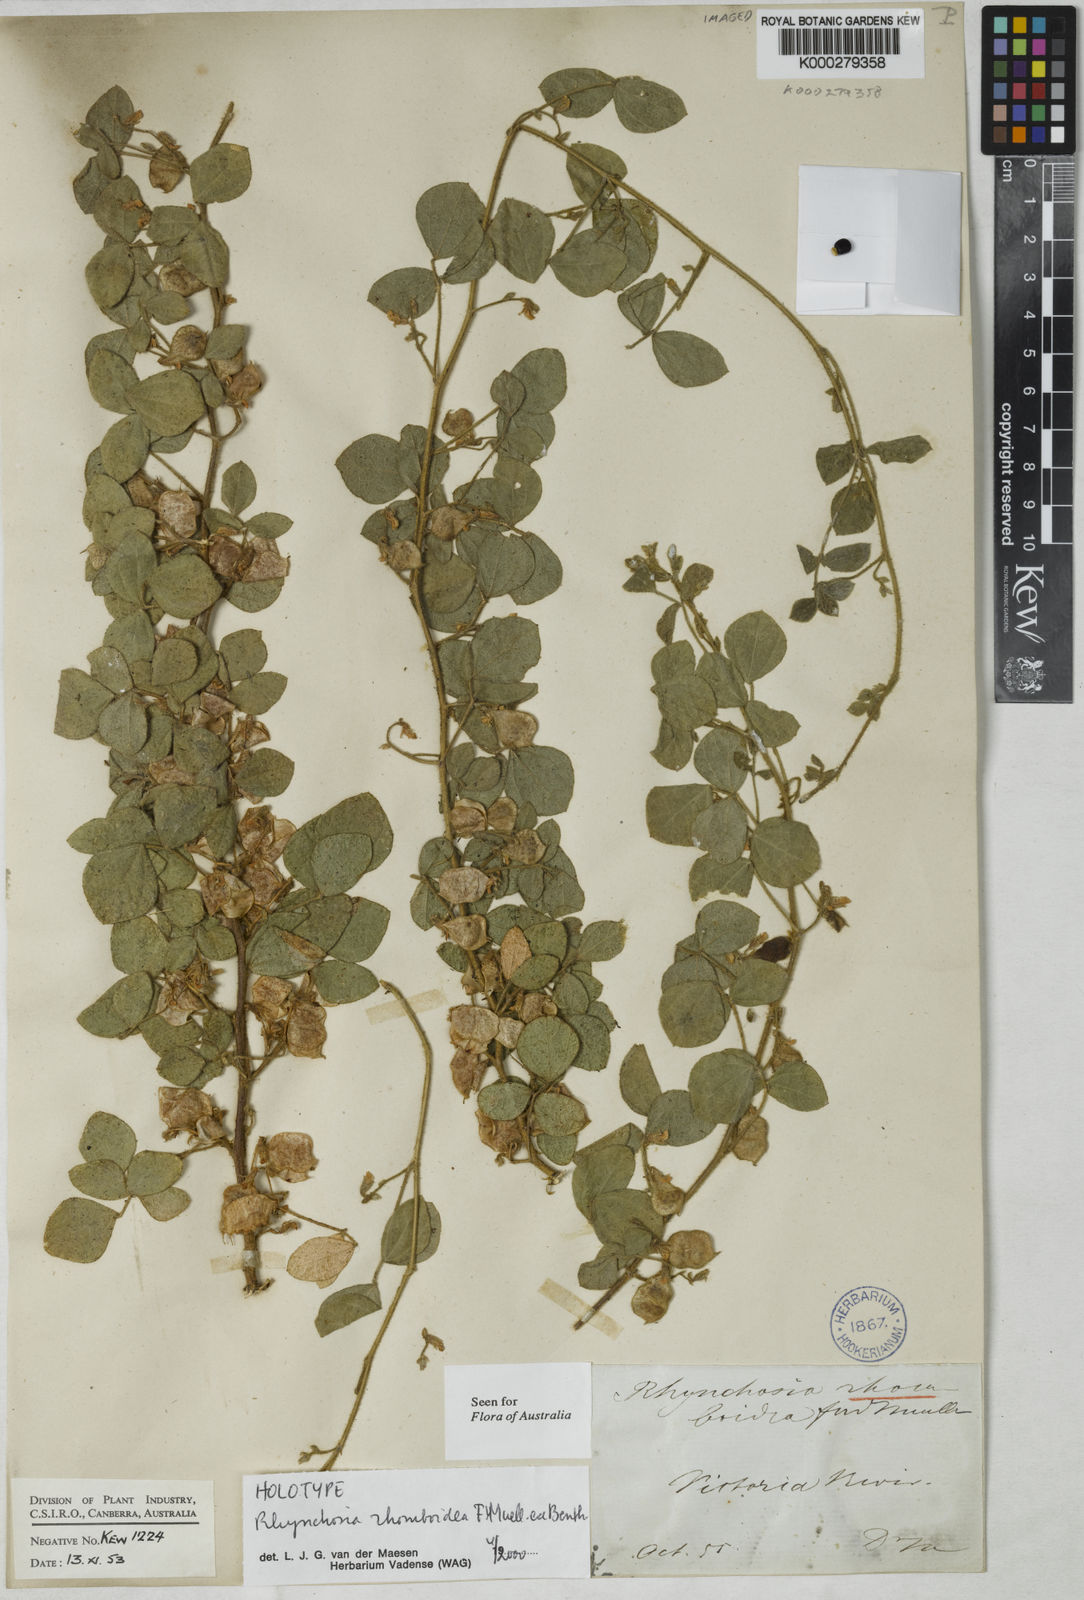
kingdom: Plantae
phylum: Tracheophyta
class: Magnoliopsida
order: Fabales
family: Fabaceae
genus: Rhynchosia
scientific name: Rhynchosia rhomboidea
